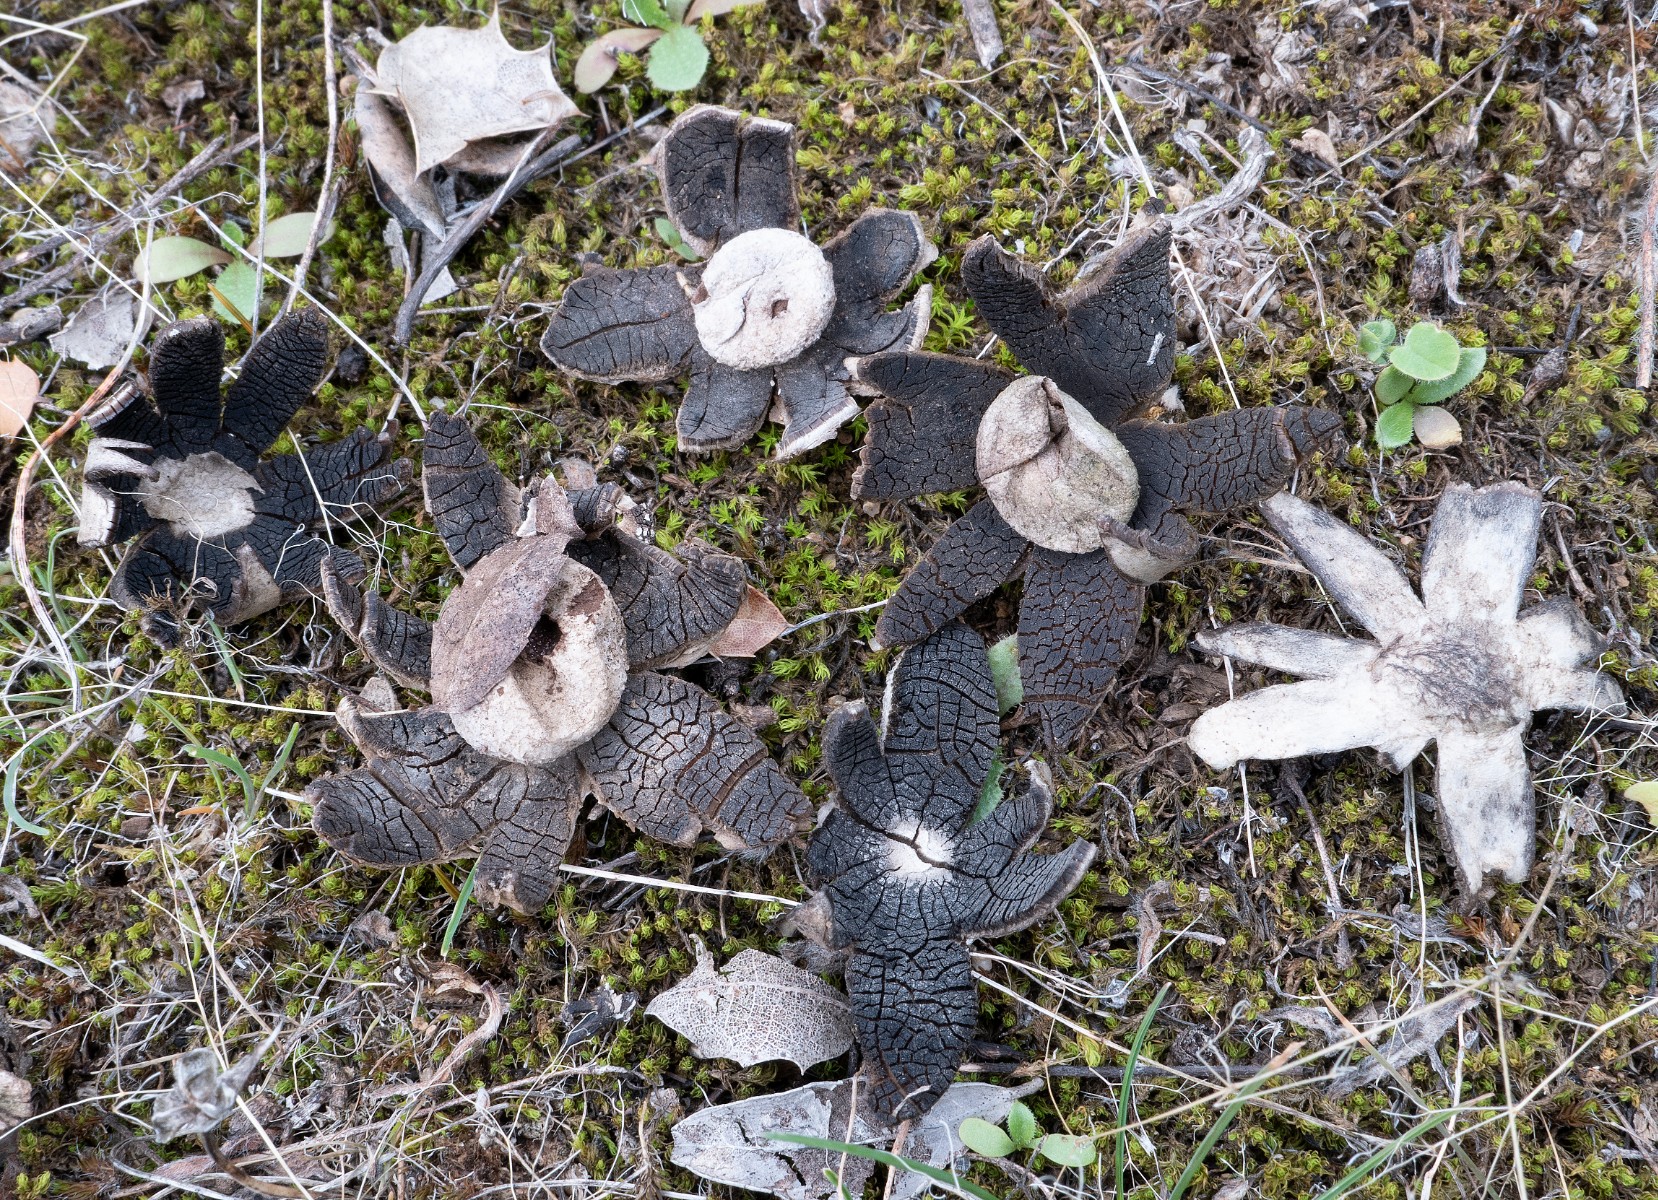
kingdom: Fungi
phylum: Basidiomycota
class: Agaricomycetes
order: Boletales
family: Diplocystidiaceae
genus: Astraeus
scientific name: Astraeus
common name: hygrometerstjerne
